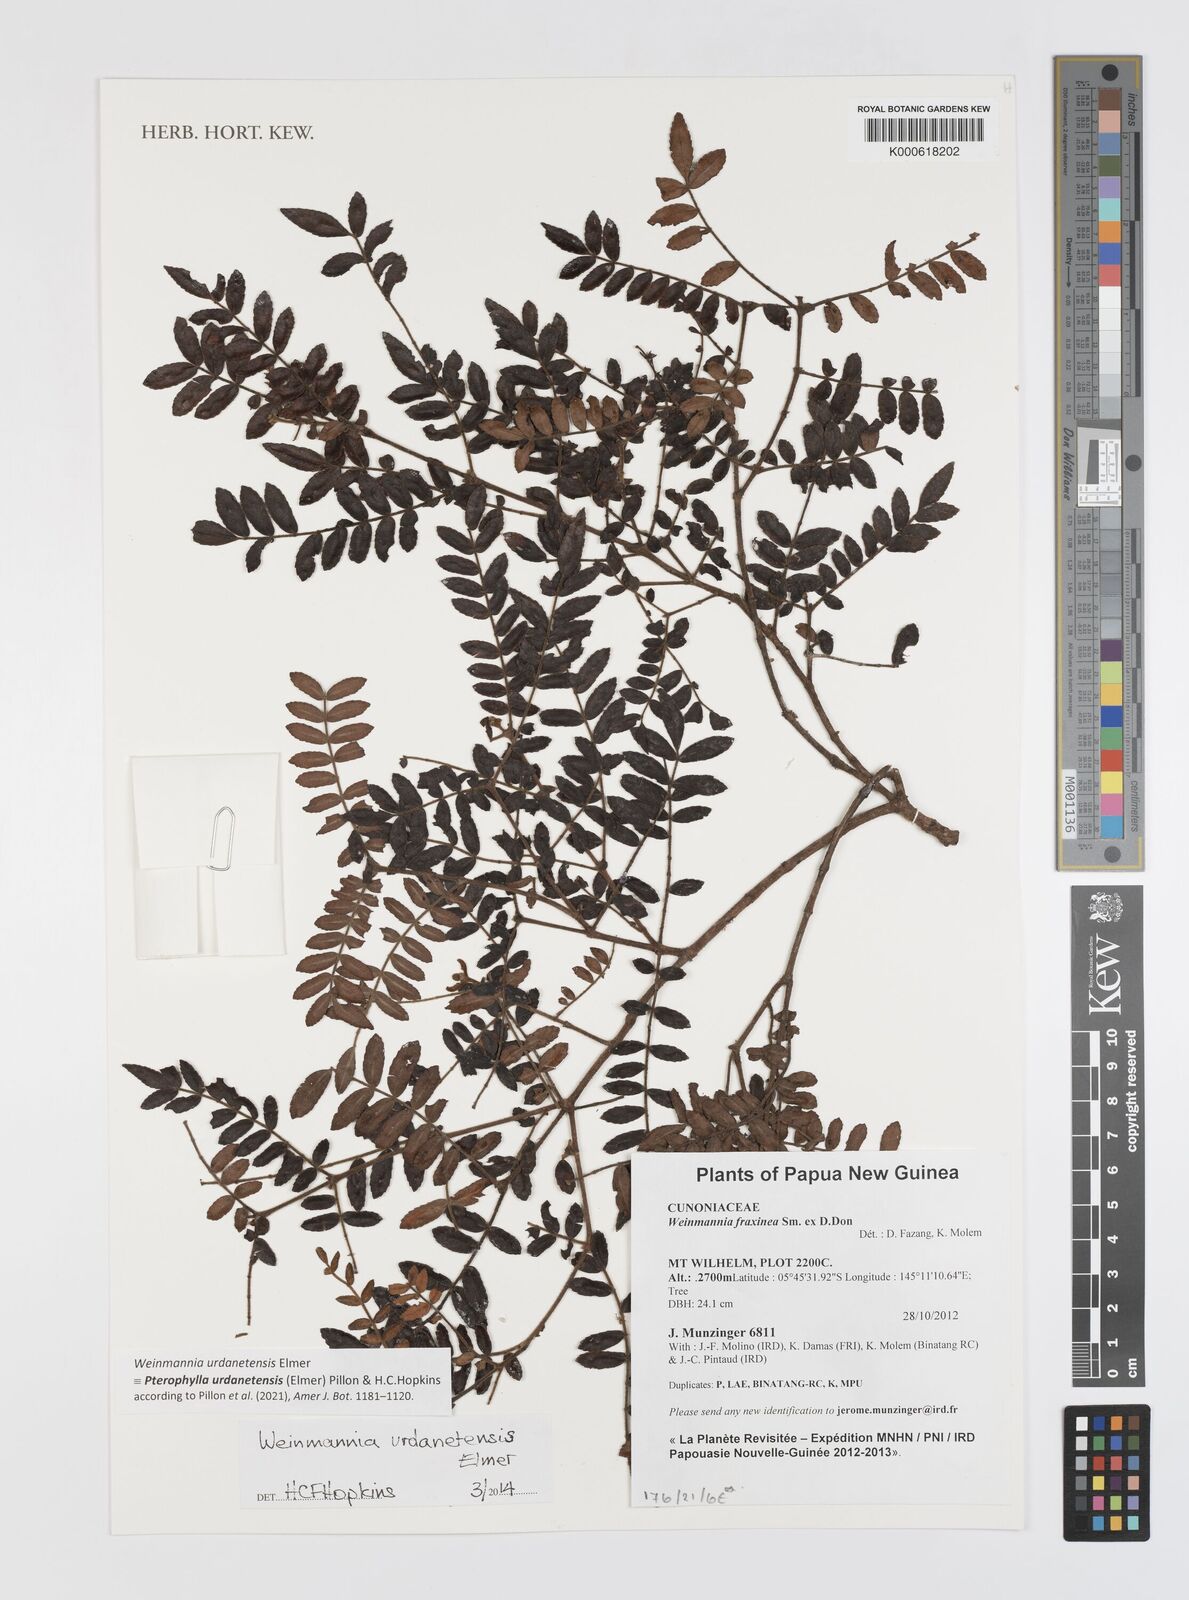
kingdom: Plantae
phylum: Tracheophyta
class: Magnoliopsida
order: Oxalidales
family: Cunoniaceae
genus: Pterophylla
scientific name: Pterophylla urdanetensis
